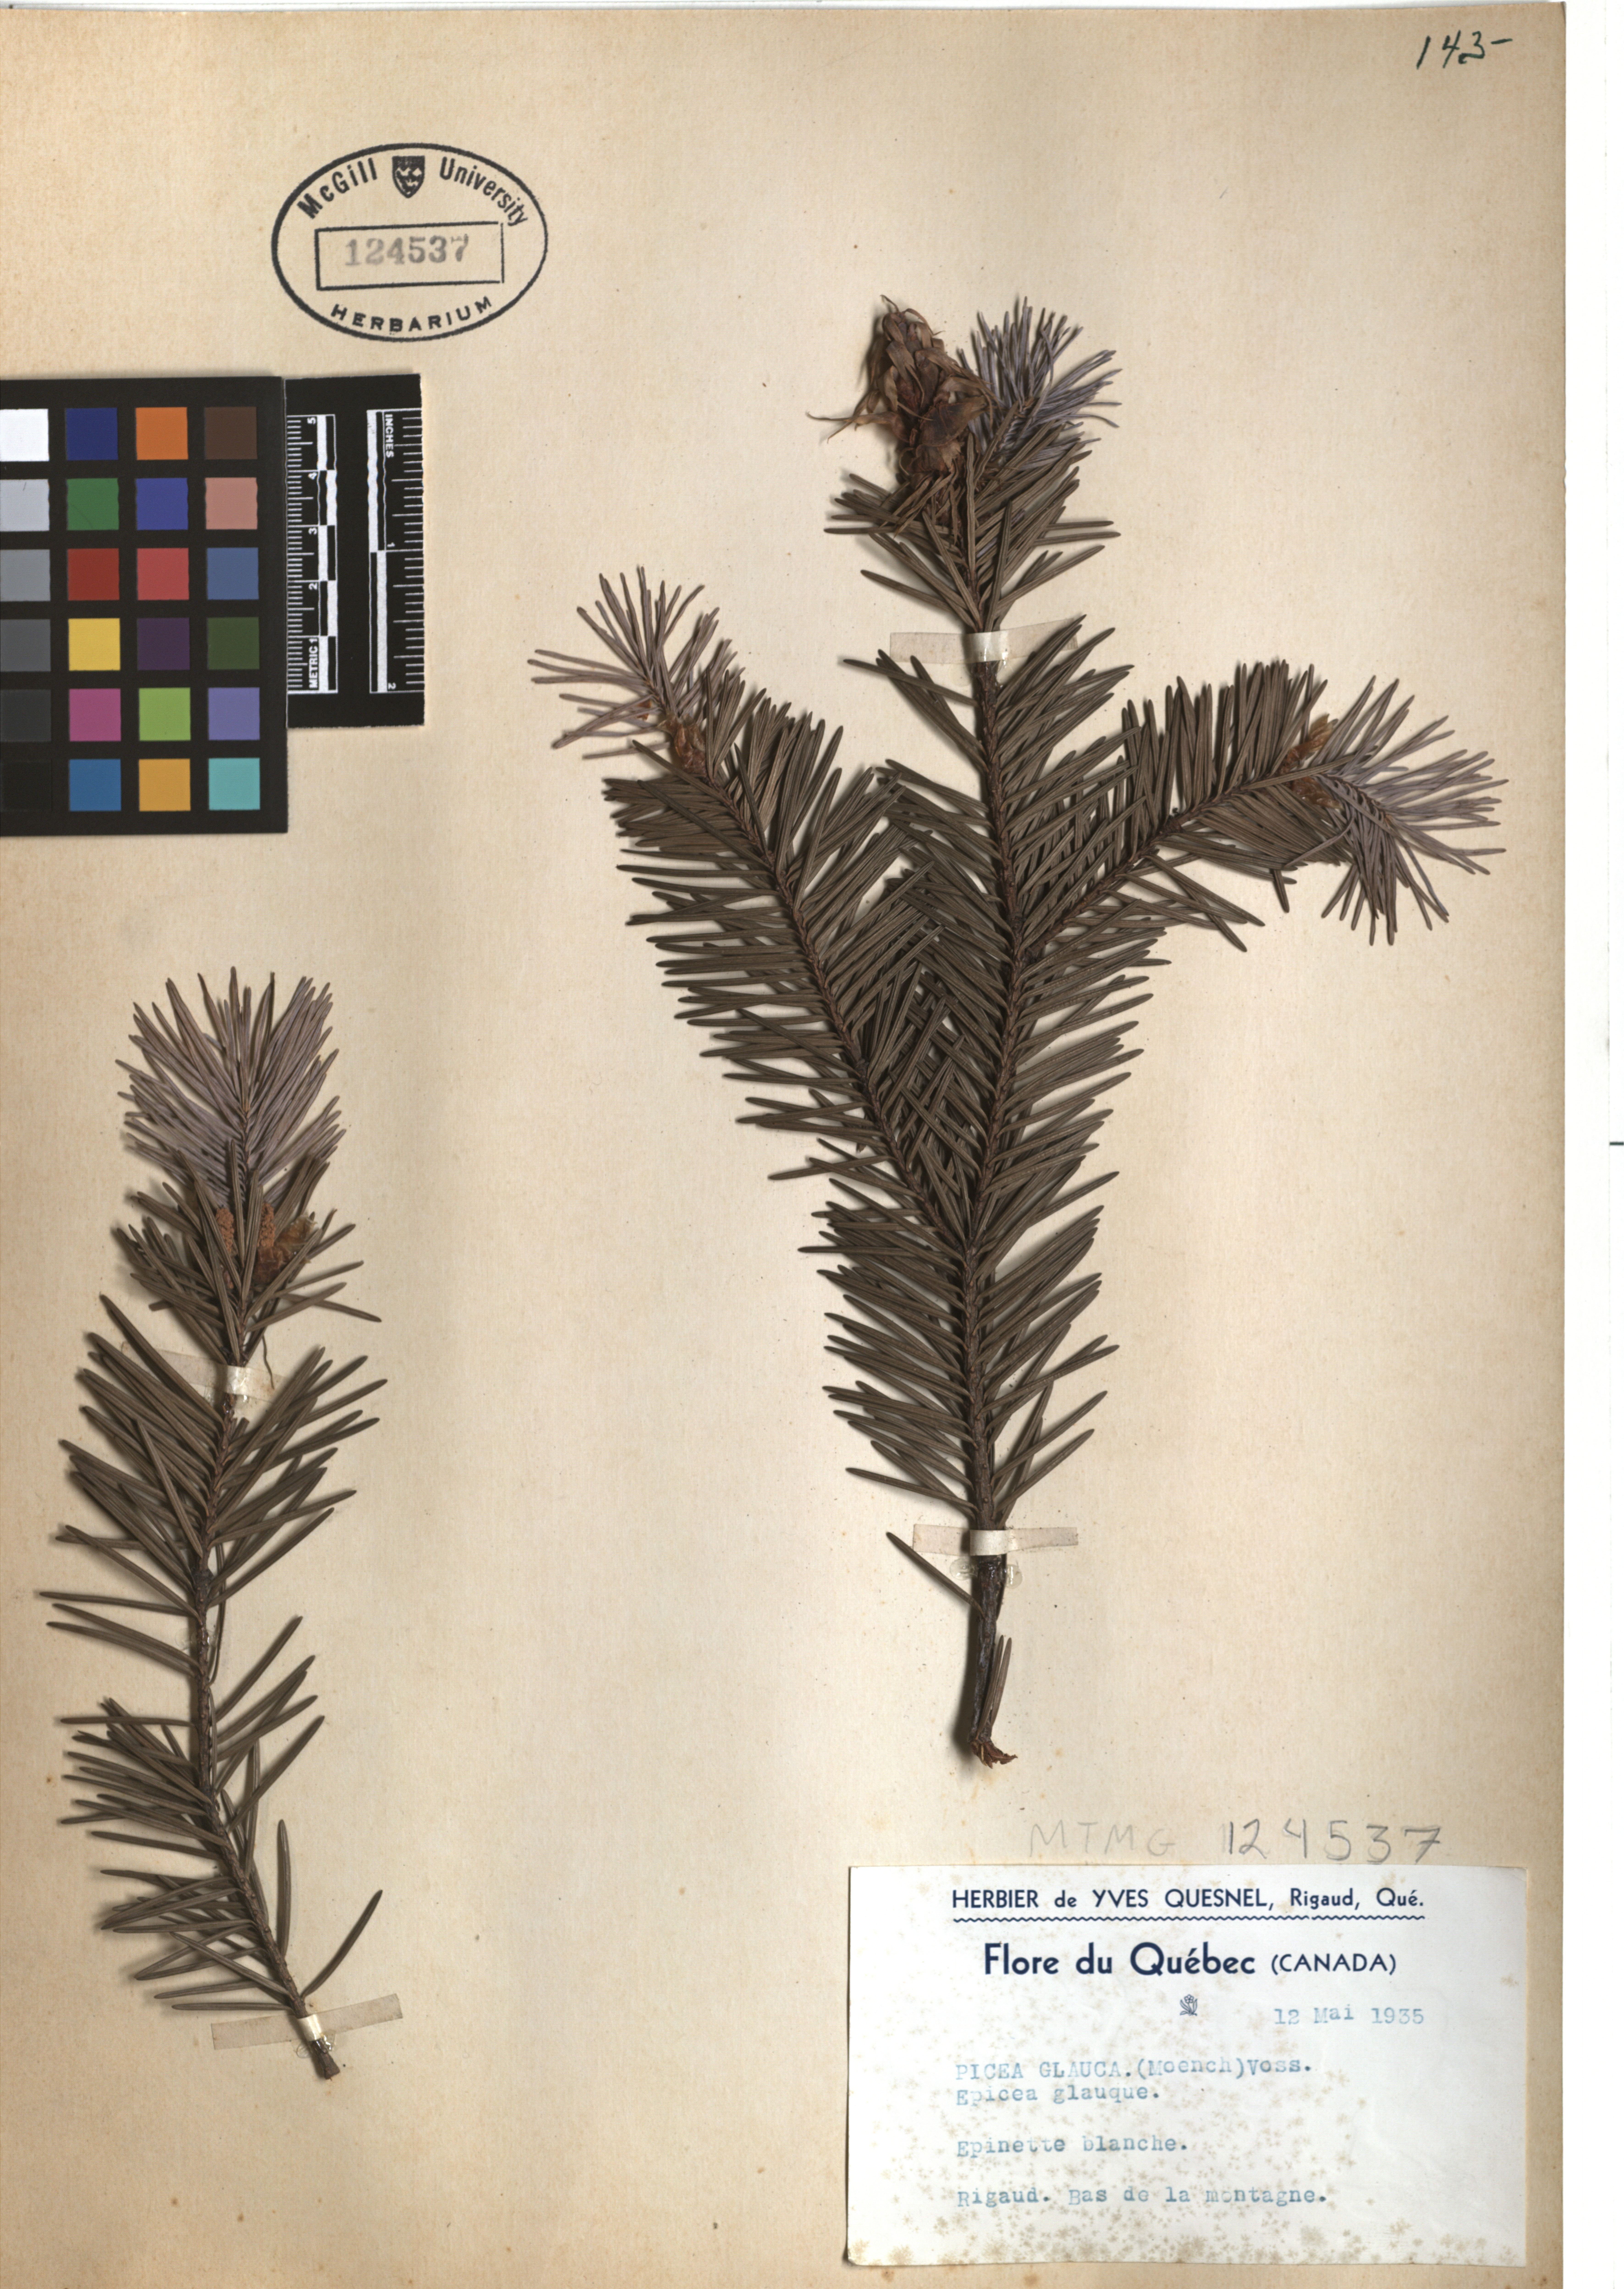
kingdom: Plantae
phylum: Tracheophyta
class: Pinopsida
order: Pinales
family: Pinaceae
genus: Picea
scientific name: Picea glauca
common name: White spruce
